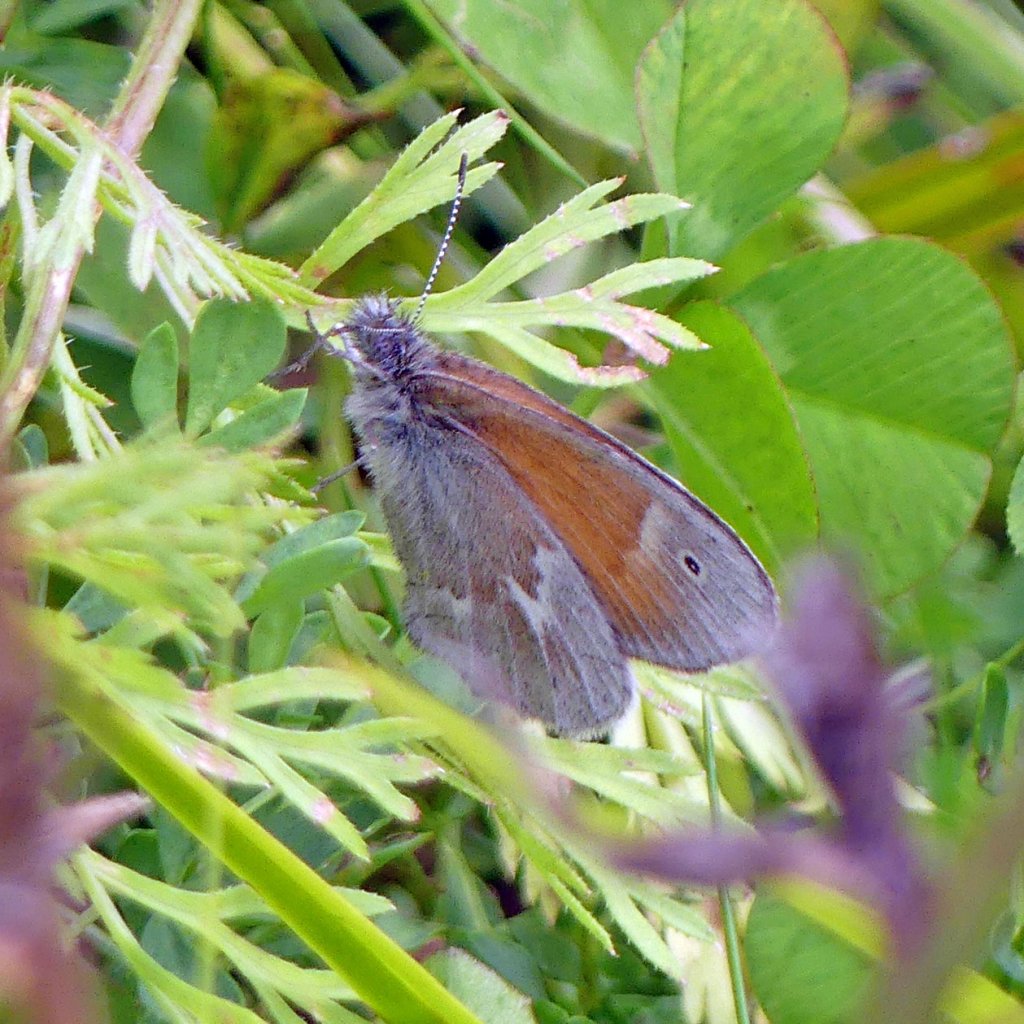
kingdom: Animalia
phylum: Arthropoda
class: Insecta
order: Lepidoptera
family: Nymphalidae
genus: Coenonympha
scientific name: Coenonympha tullia
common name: Large Heath
